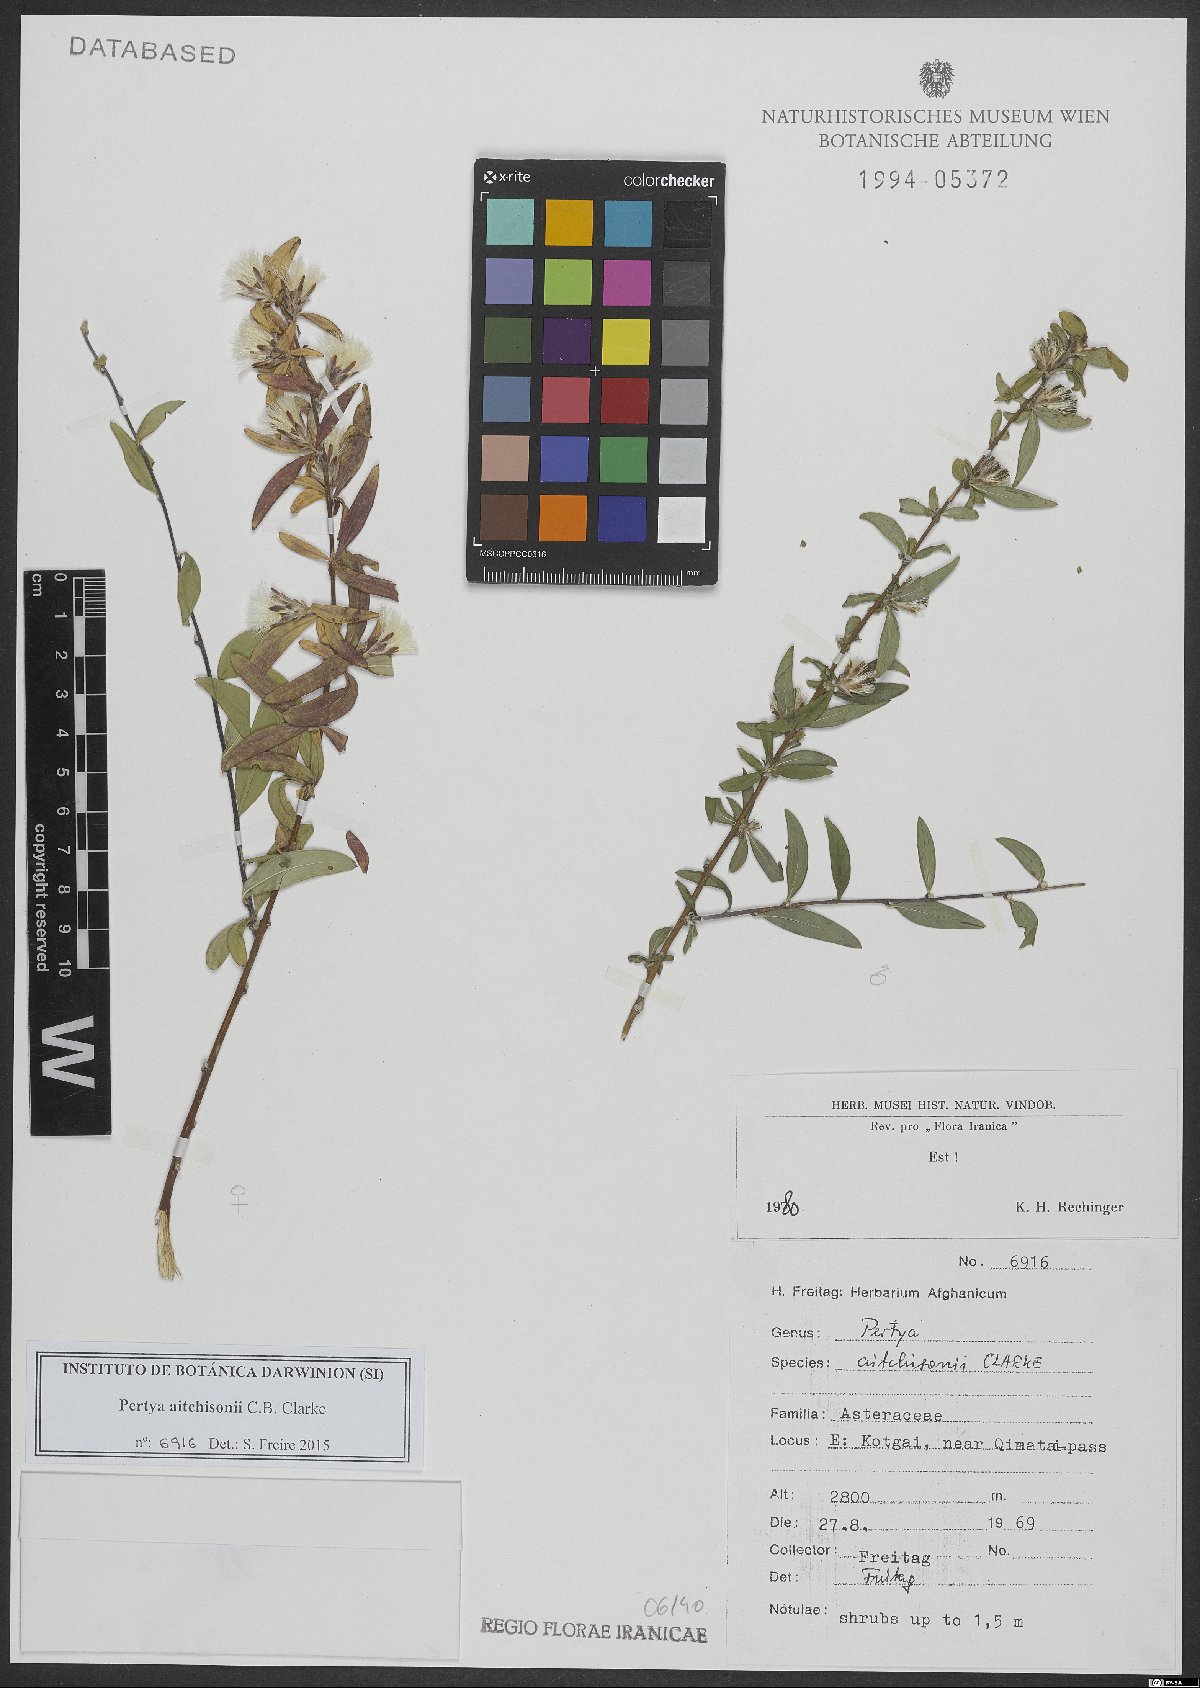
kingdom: Plantae
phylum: Tracheophyta
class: Magnoliopsida
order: Asterales
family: Asteraceae
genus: Pertya
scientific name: Pertya aitchisonii
